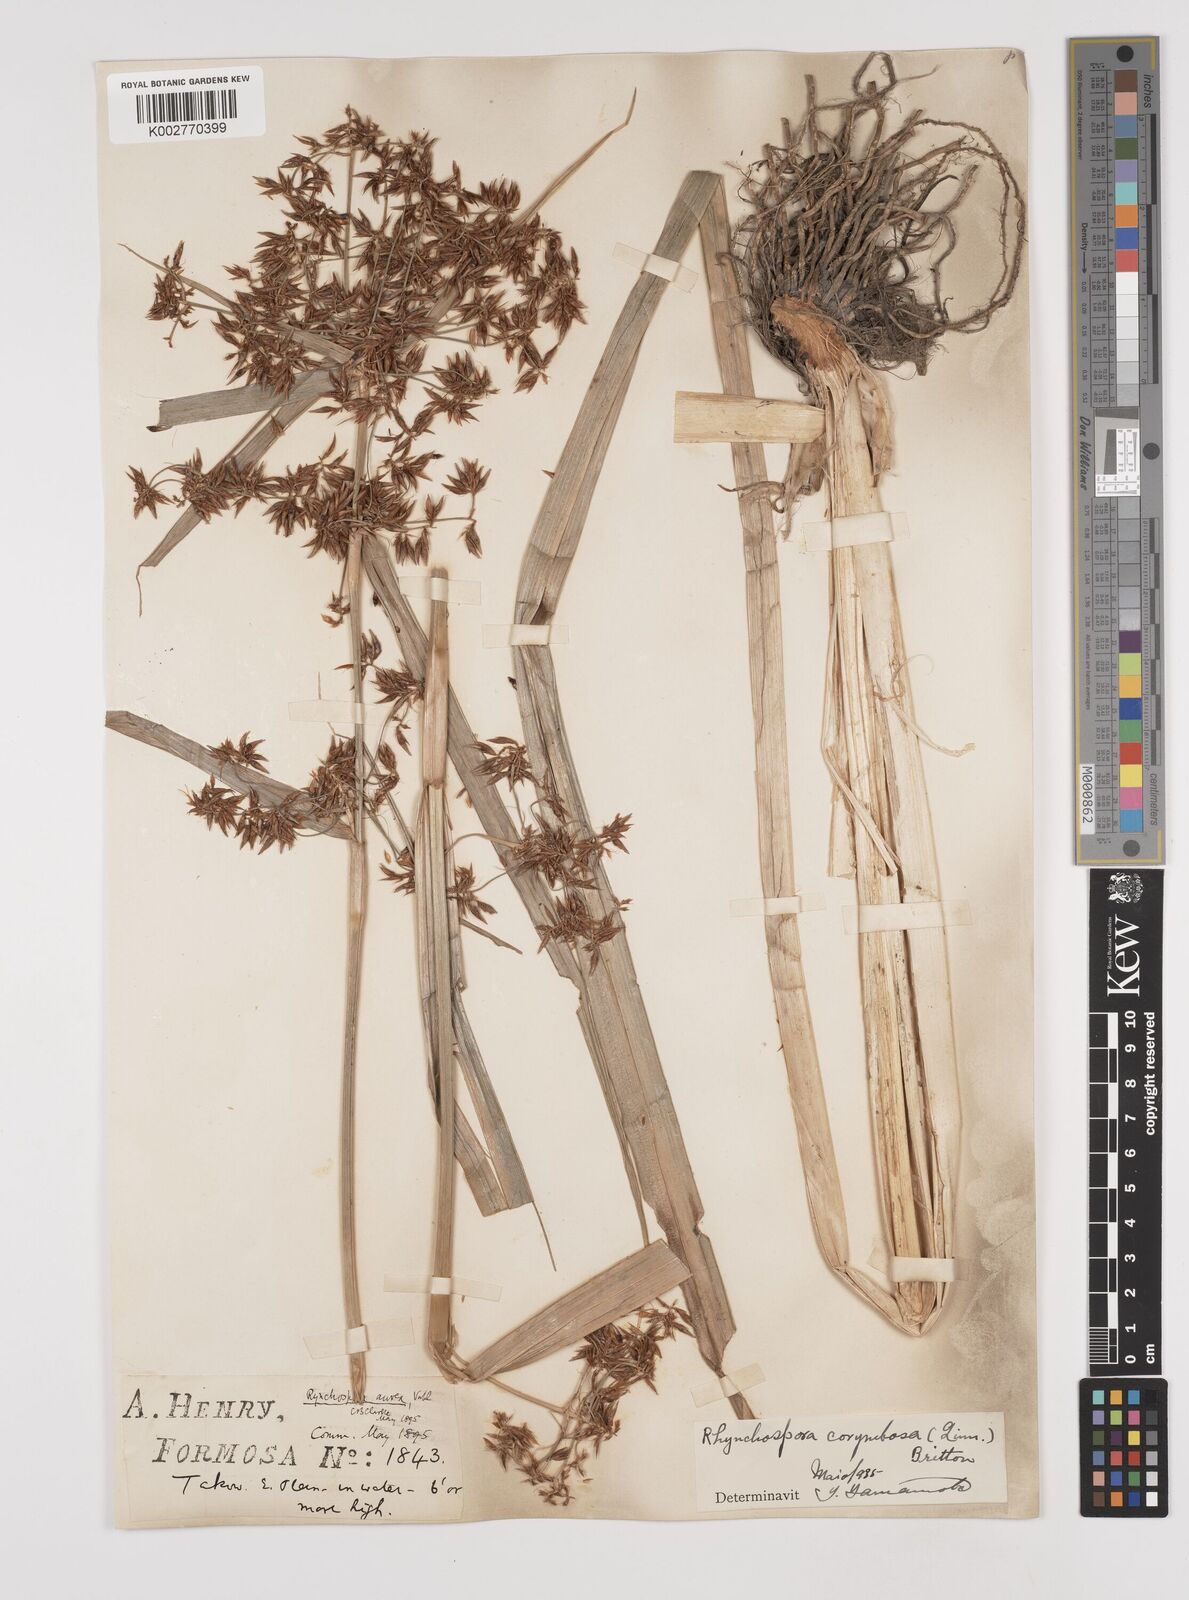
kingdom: Plantae
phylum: Tracheophyta
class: Liliopsida
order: Poales
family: Cyperaceae
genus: Rhynchospora
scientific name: Rhynchospora corymbosa
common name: Golden beak sedge
